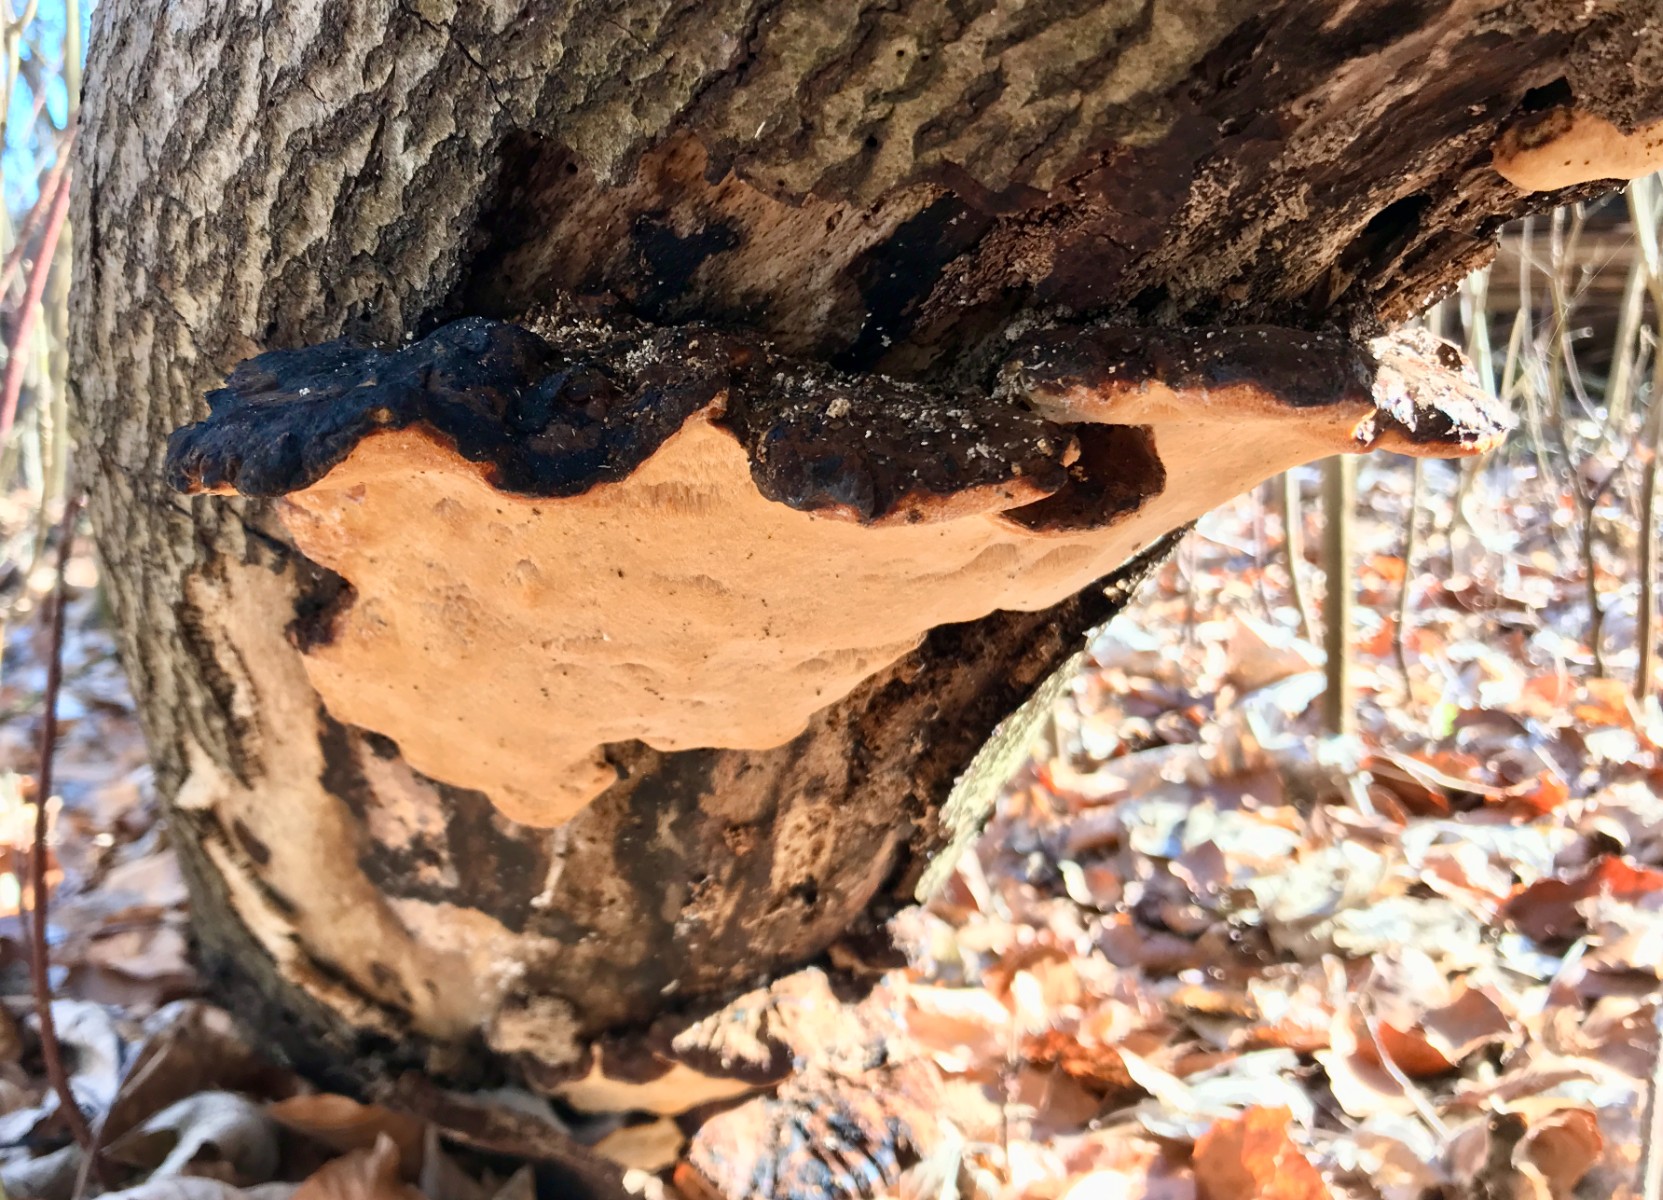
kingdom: Fungi
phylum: Basidiomycota
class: Agaricomycetes
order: Polyporales
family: Ischnodermataceae
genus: Ischnoderma
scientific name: Ischnoderma resinosum
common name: løv-tjæreporesvamp
